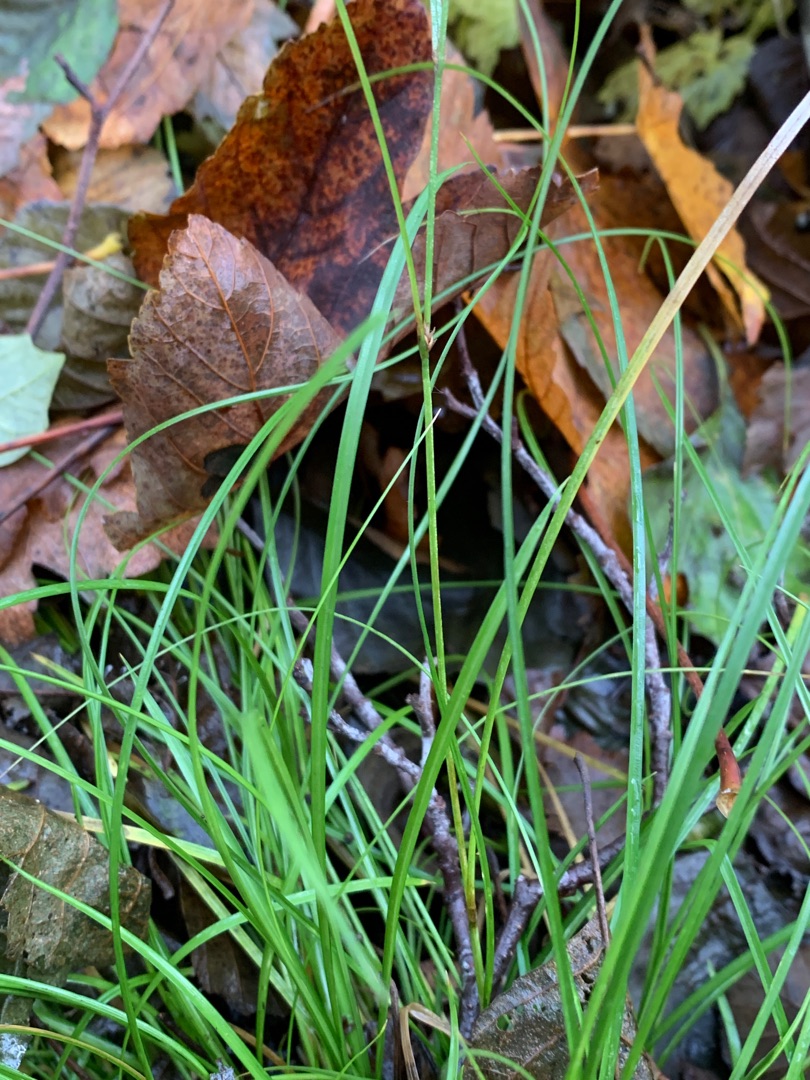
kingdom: Plantae
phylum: Tracheophyta
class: Liliopsida
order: Poales
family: Cyperaceae
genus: Carex
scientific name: Carex remota
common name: Akselblomstret star
